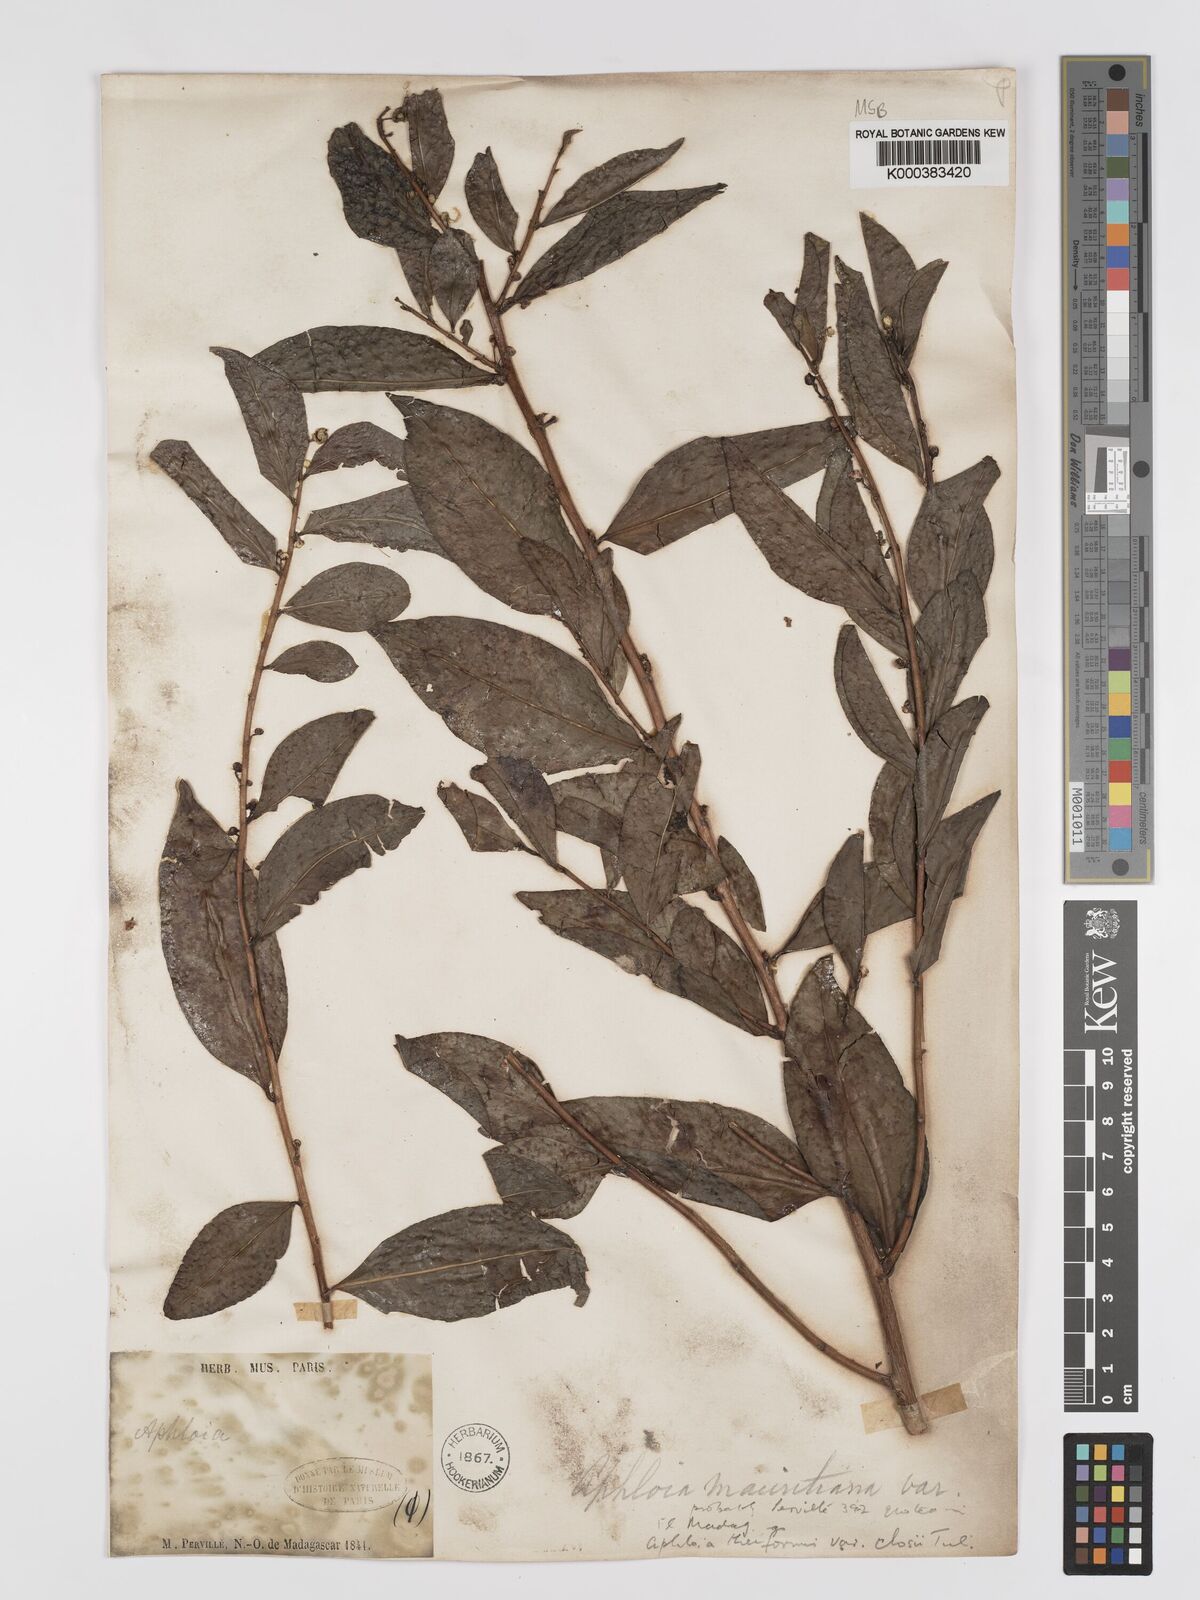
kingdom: Plantae
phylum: Tracheophyta
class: Magnoliopsida
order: Crossosomatales
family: Aphloiaceae
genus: Aphloia
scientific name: Aphloia theiformis
